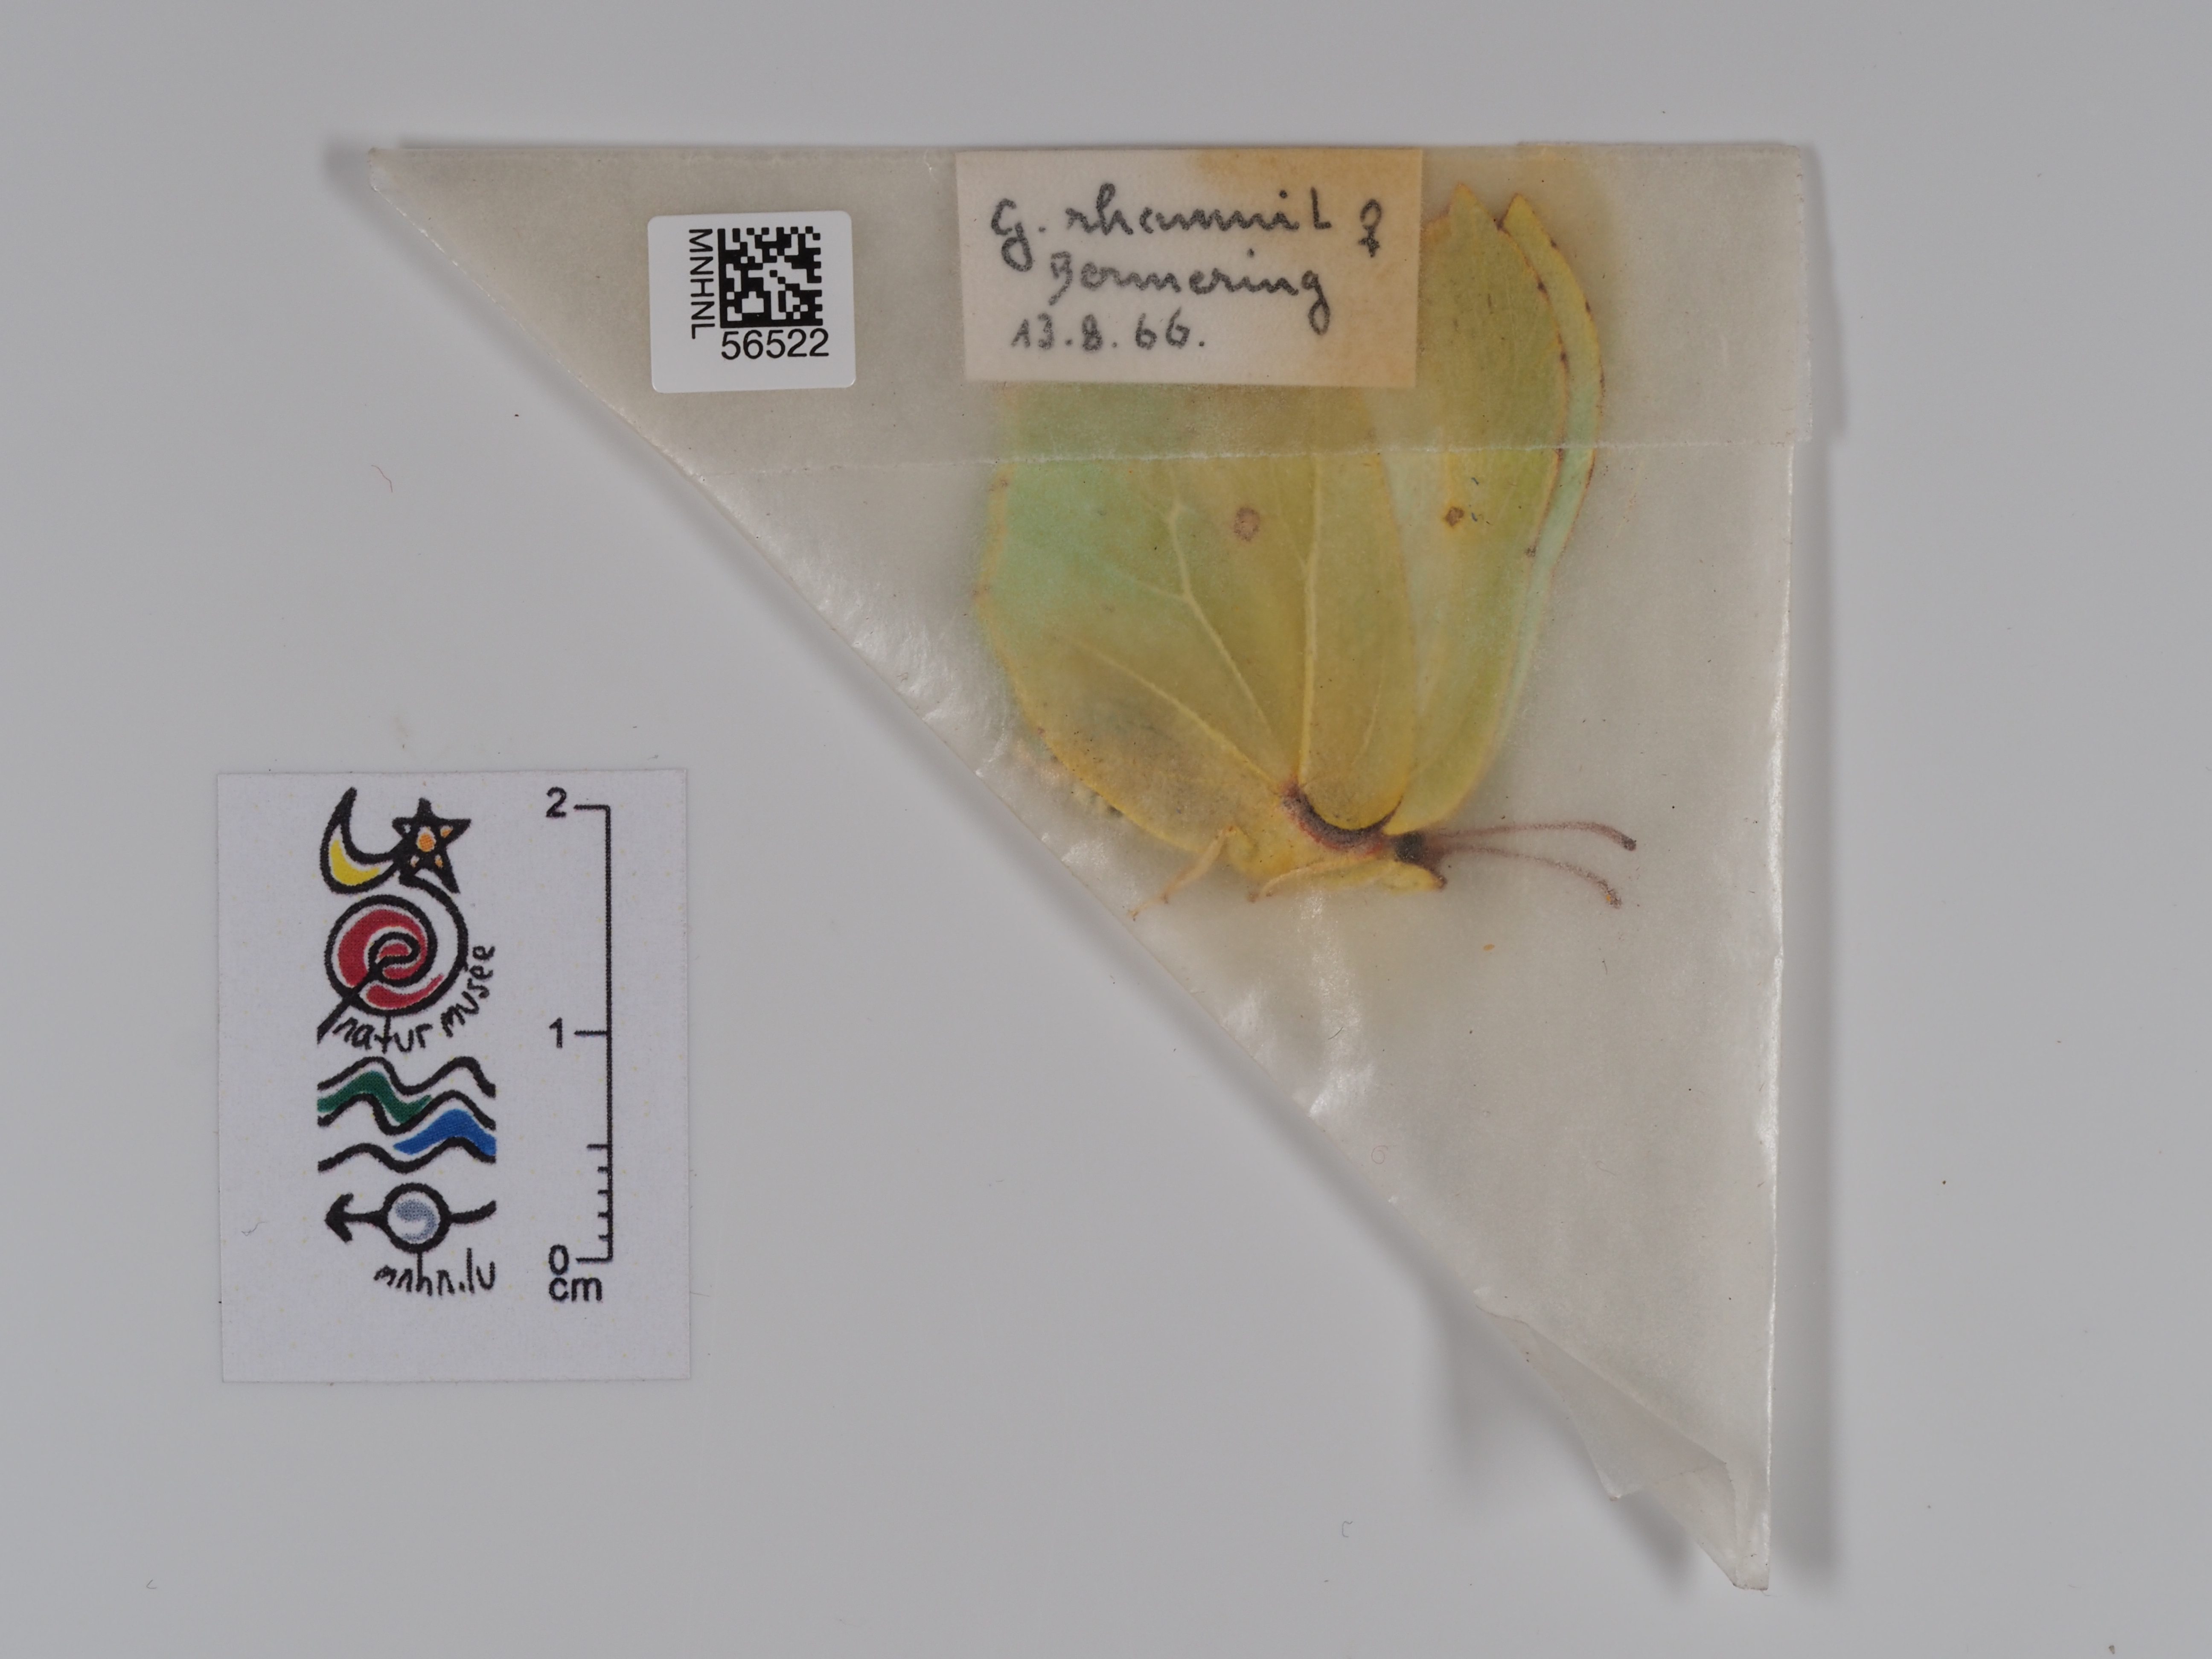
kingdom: Animalia
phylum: Arthropoda
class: Insecta
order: Lepidoptera
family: Pieridae
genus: Gonepteryx
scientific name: Gonepteryx rhamni
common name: Brimstone
